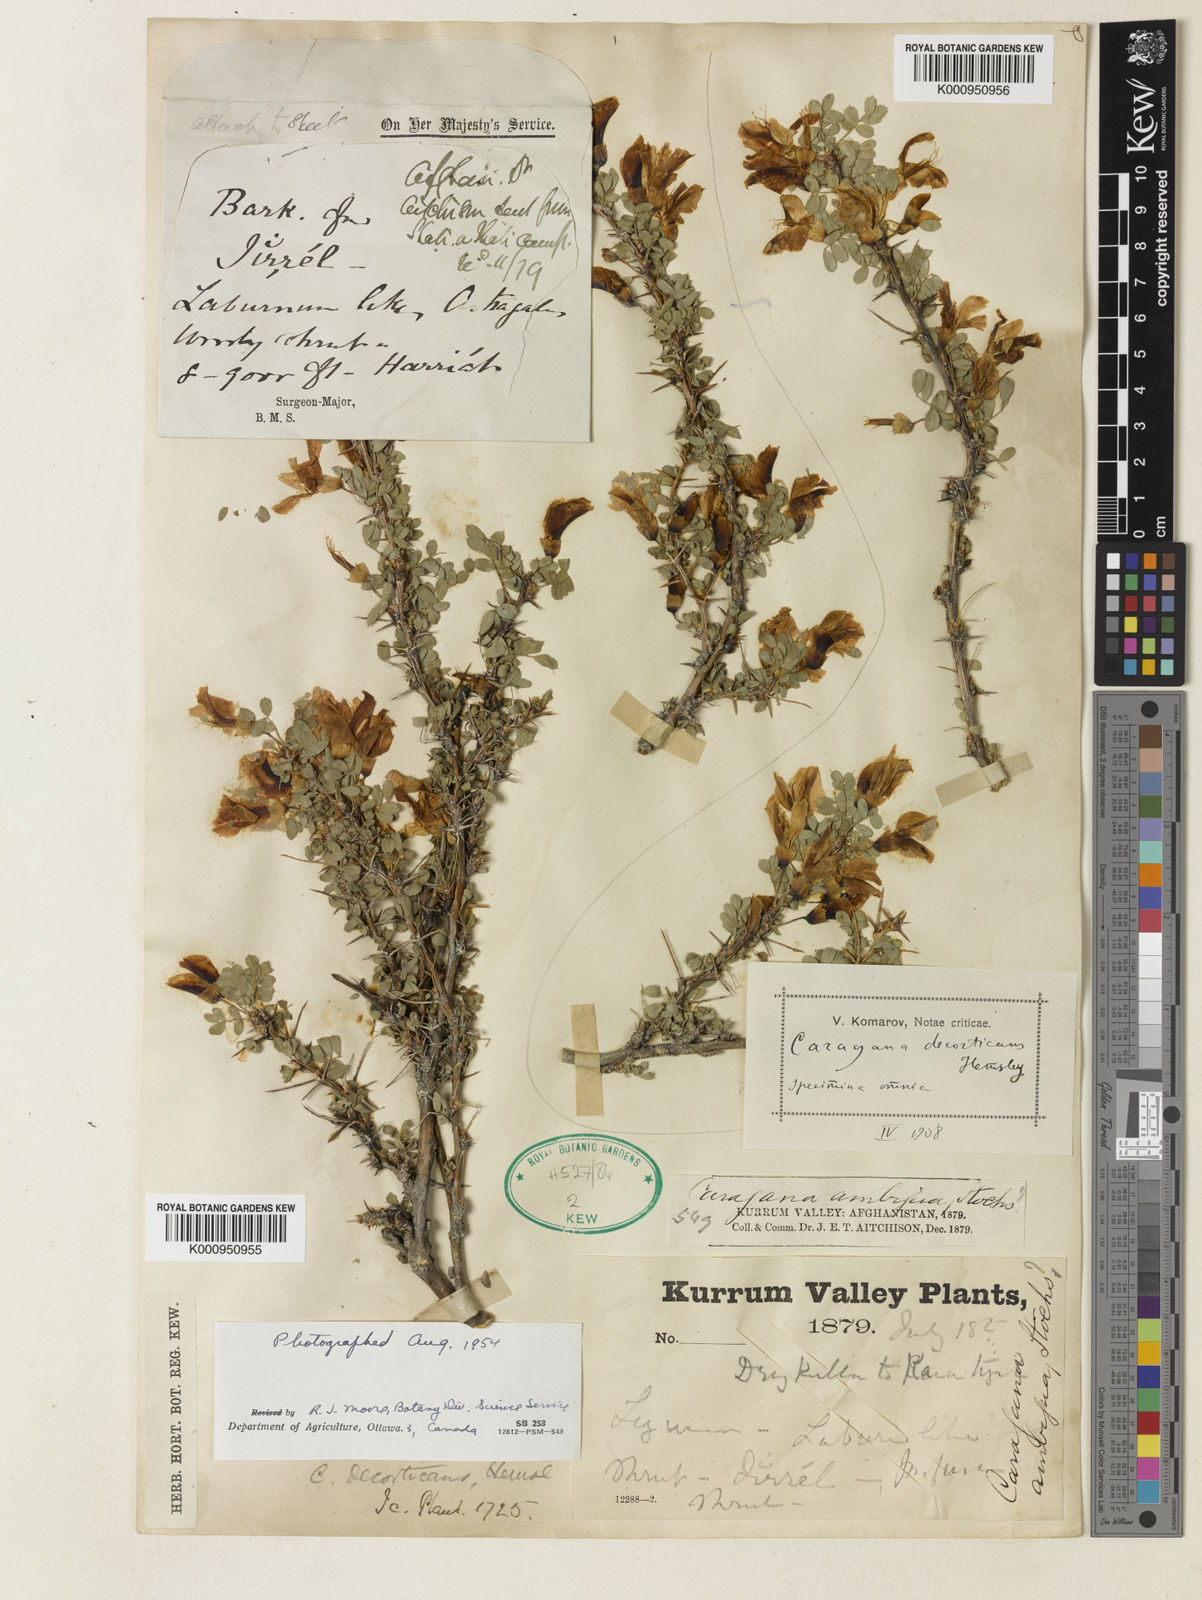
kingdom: Plantae
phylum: Tracheophyta
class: Magnoliopsida
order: Fabales
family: Fabaceae
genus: Caragana
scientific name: Caragana decorticans
